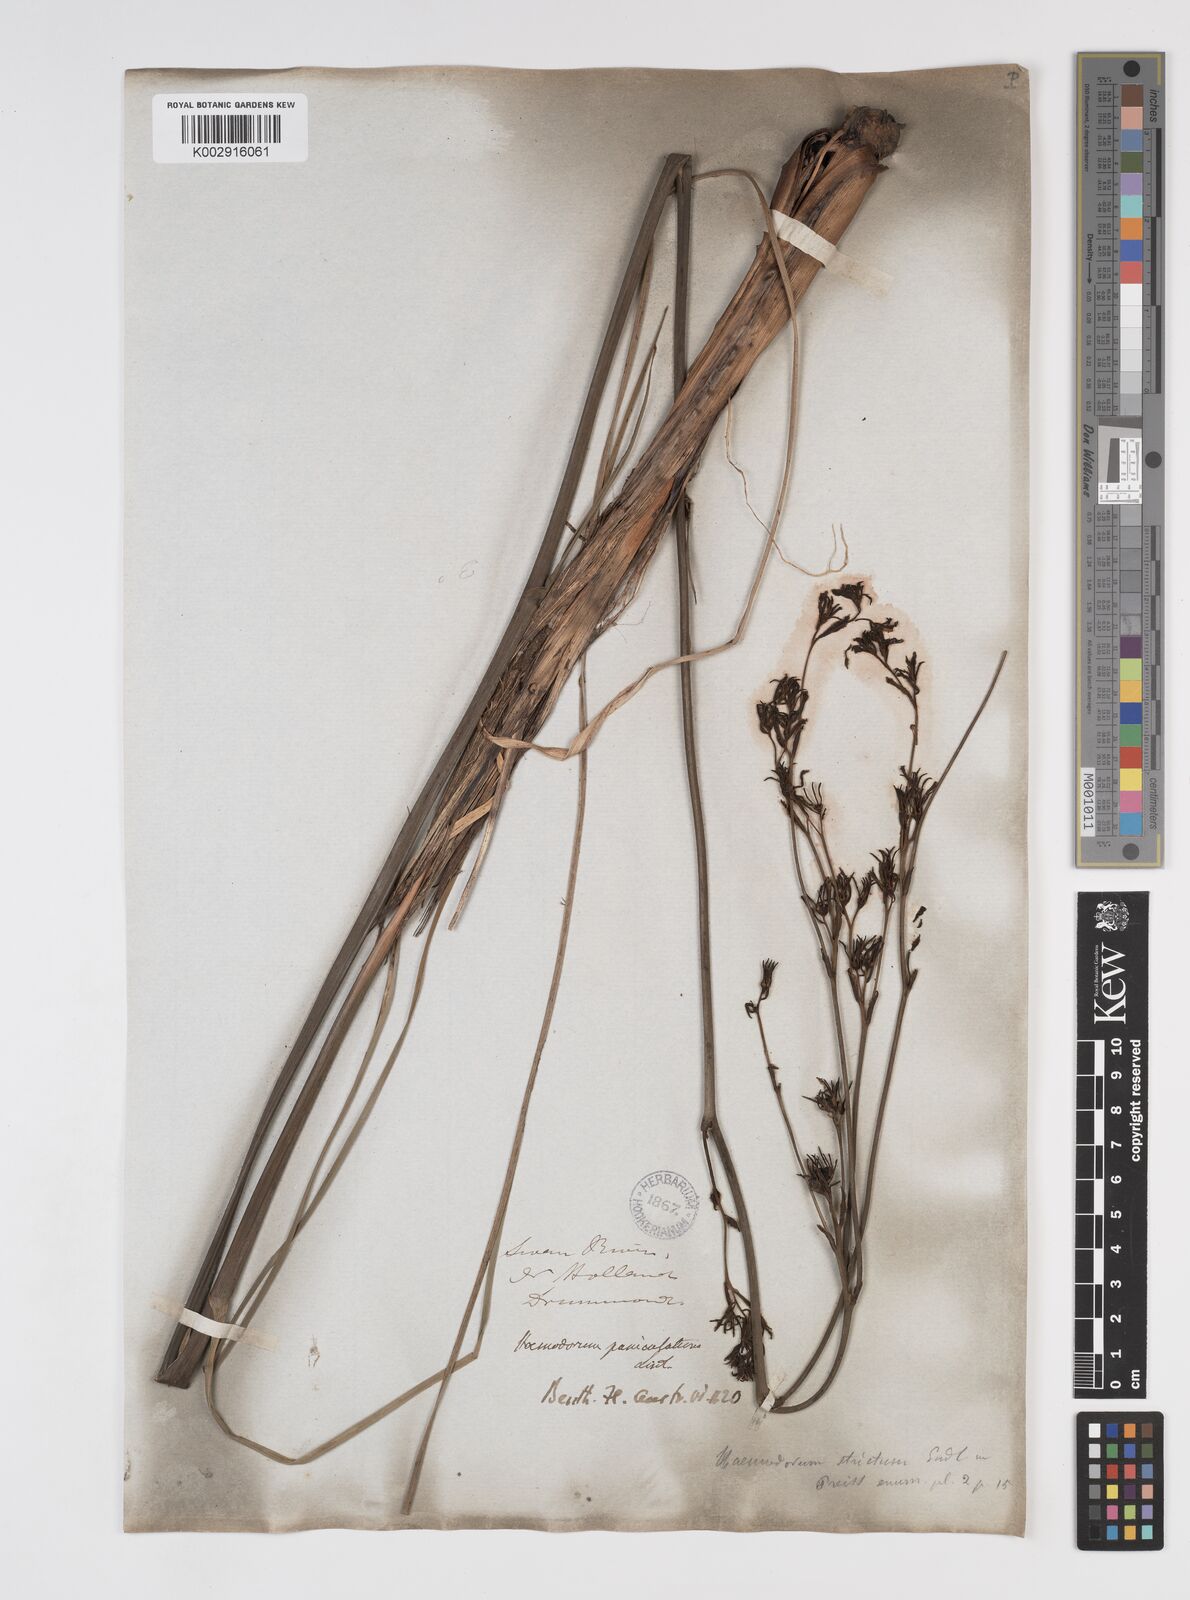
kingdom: Plantae
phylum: Tracheophyta
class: Liliopsida
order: Commelinales
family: Haemodoraceae
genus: Haemodorum
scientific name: Haemodorum paniculatum
